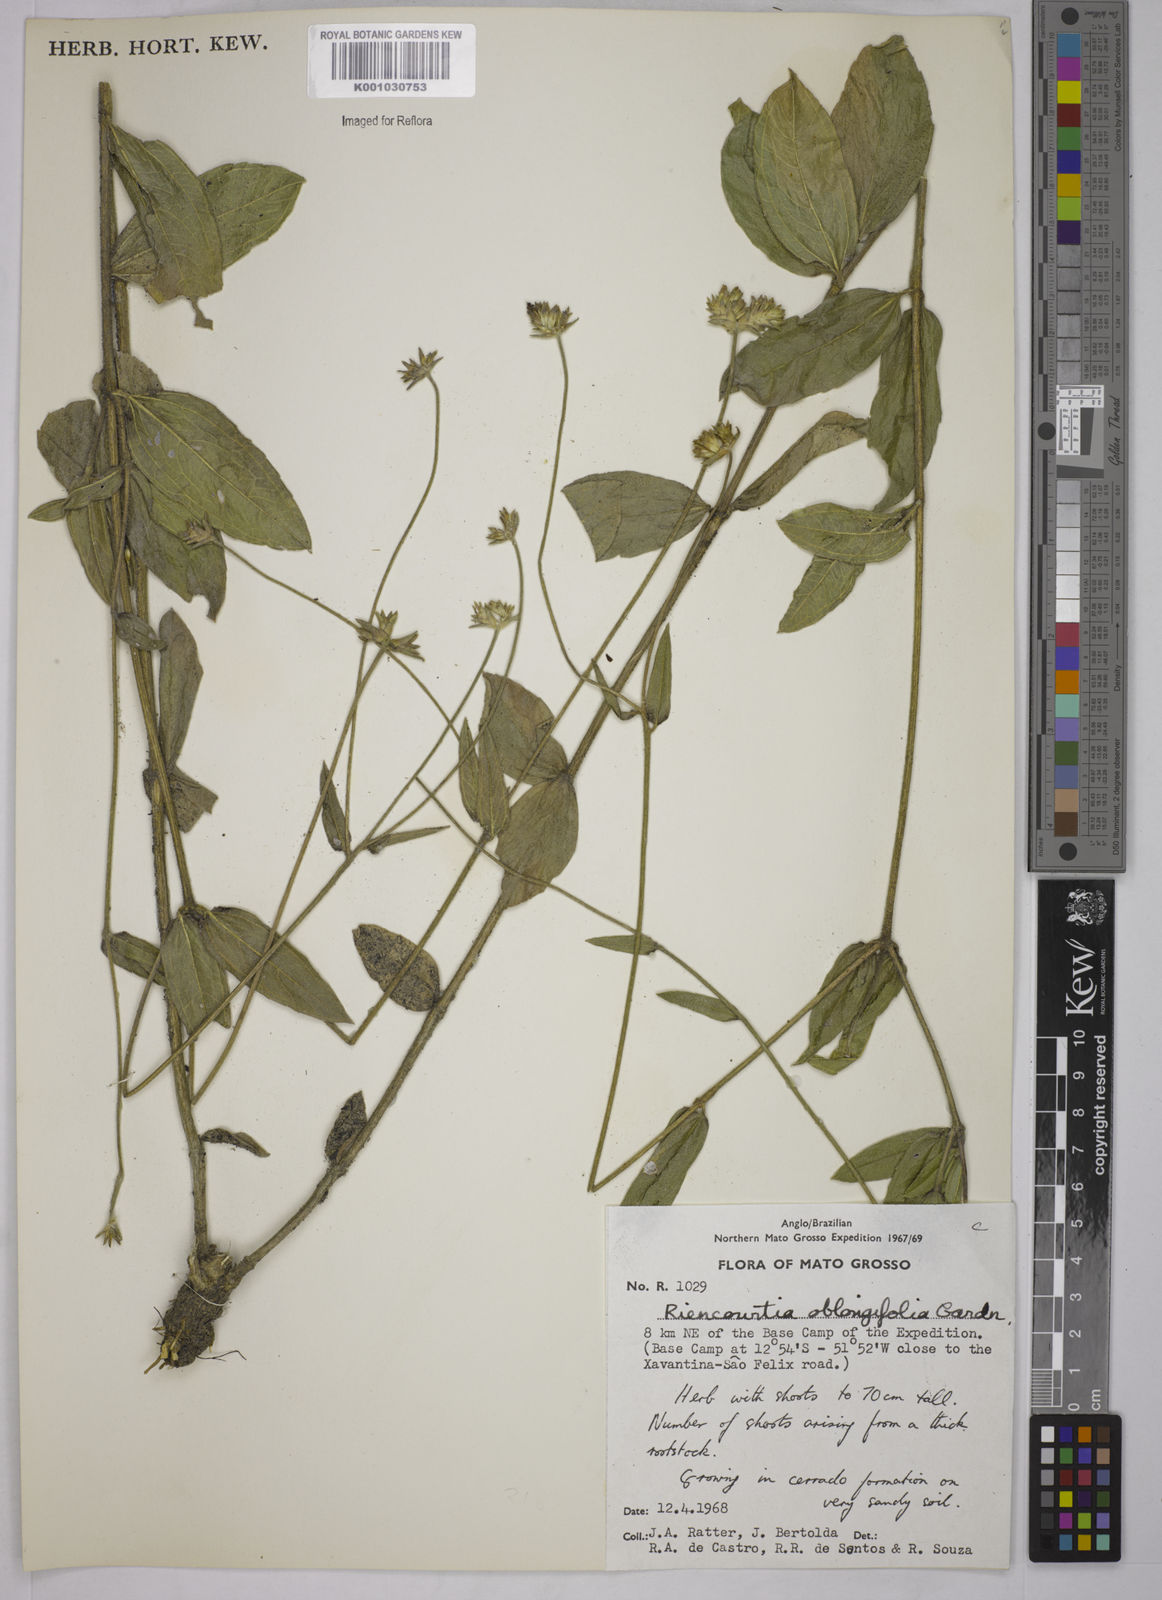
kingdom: Plantae
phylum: Tracheophyta
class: Magnoliopsida
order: Asterales
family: Asteraceae
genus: Riencourtia
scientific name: Riencourtia oblongifolia
